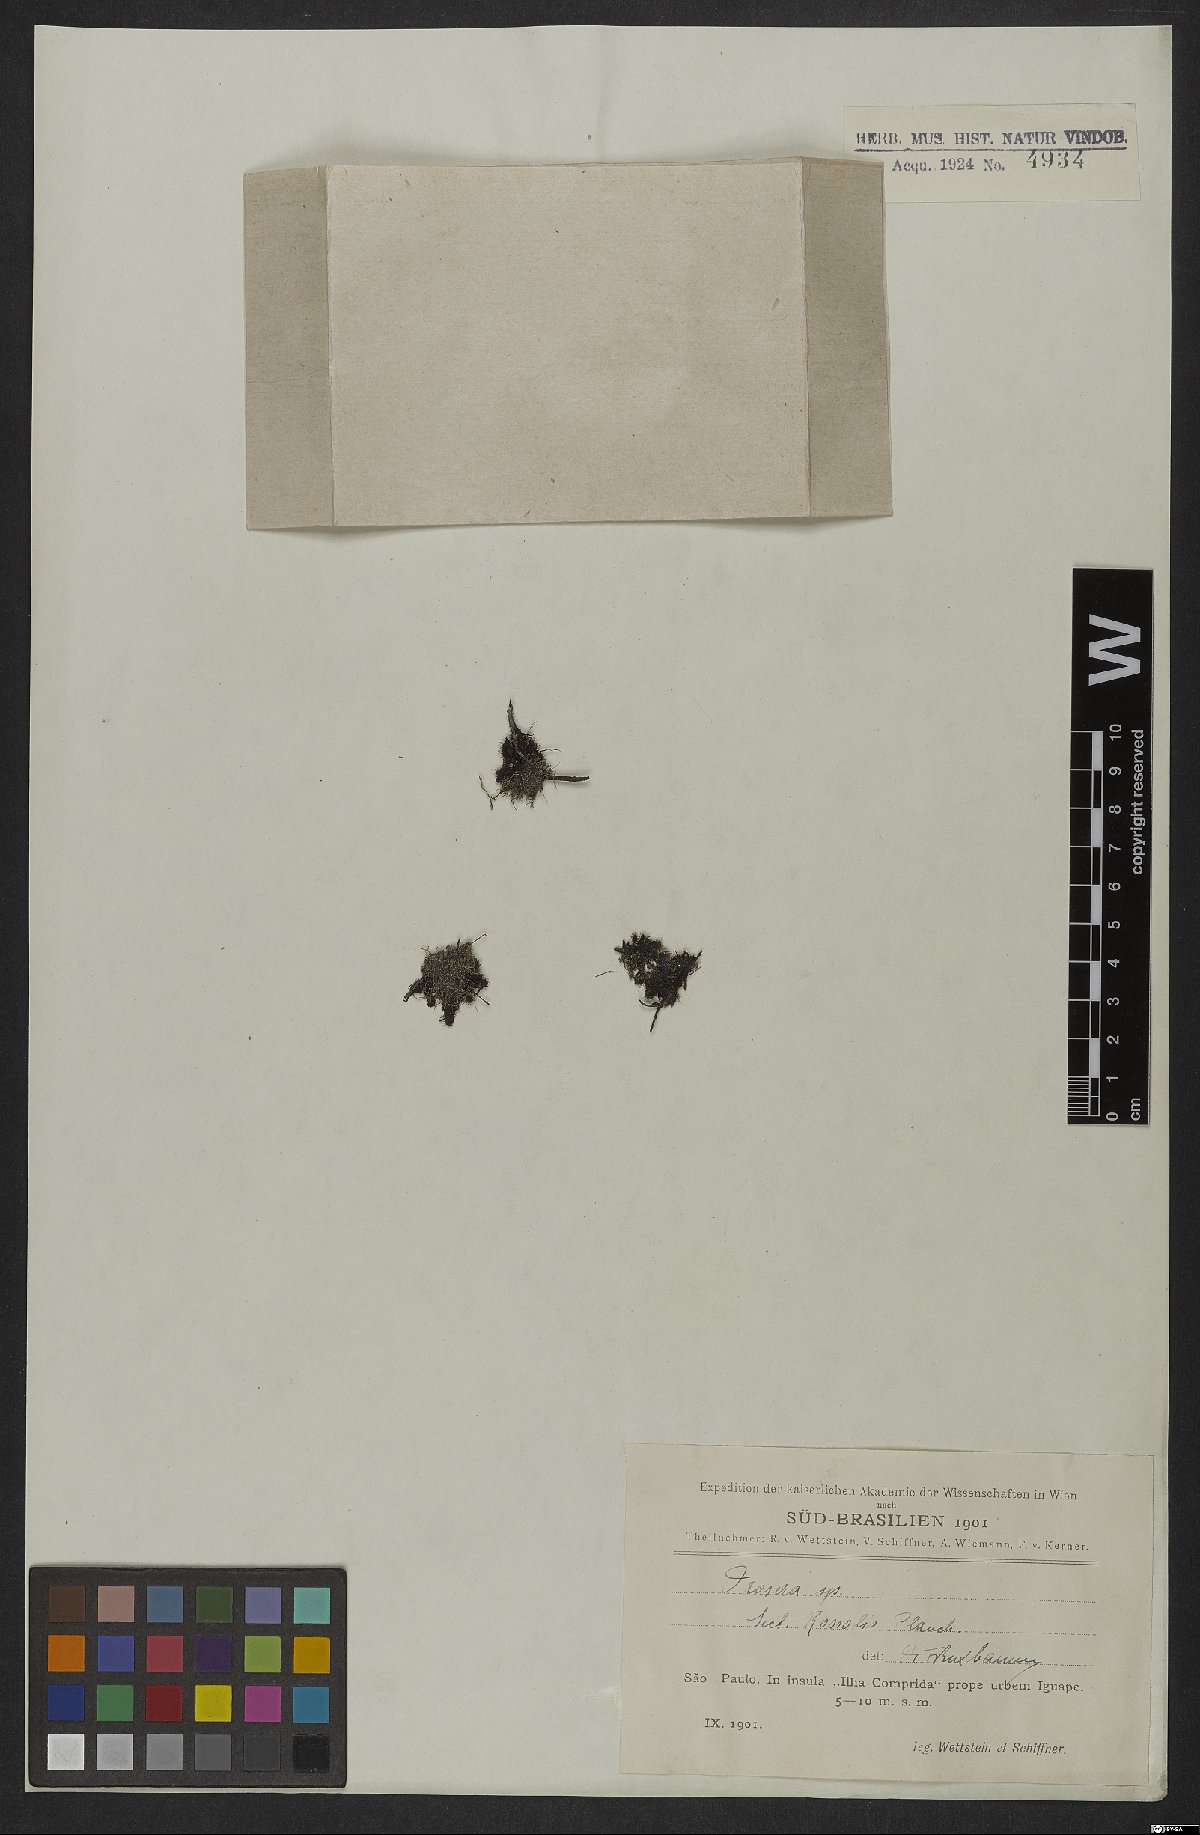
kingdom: Plantae
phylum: Tracheophyta
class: Magnoliopsida
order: Caryophyllales
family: Droseraceae
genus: Drosera
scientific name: Drosera capillaris
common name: Pink sundew
